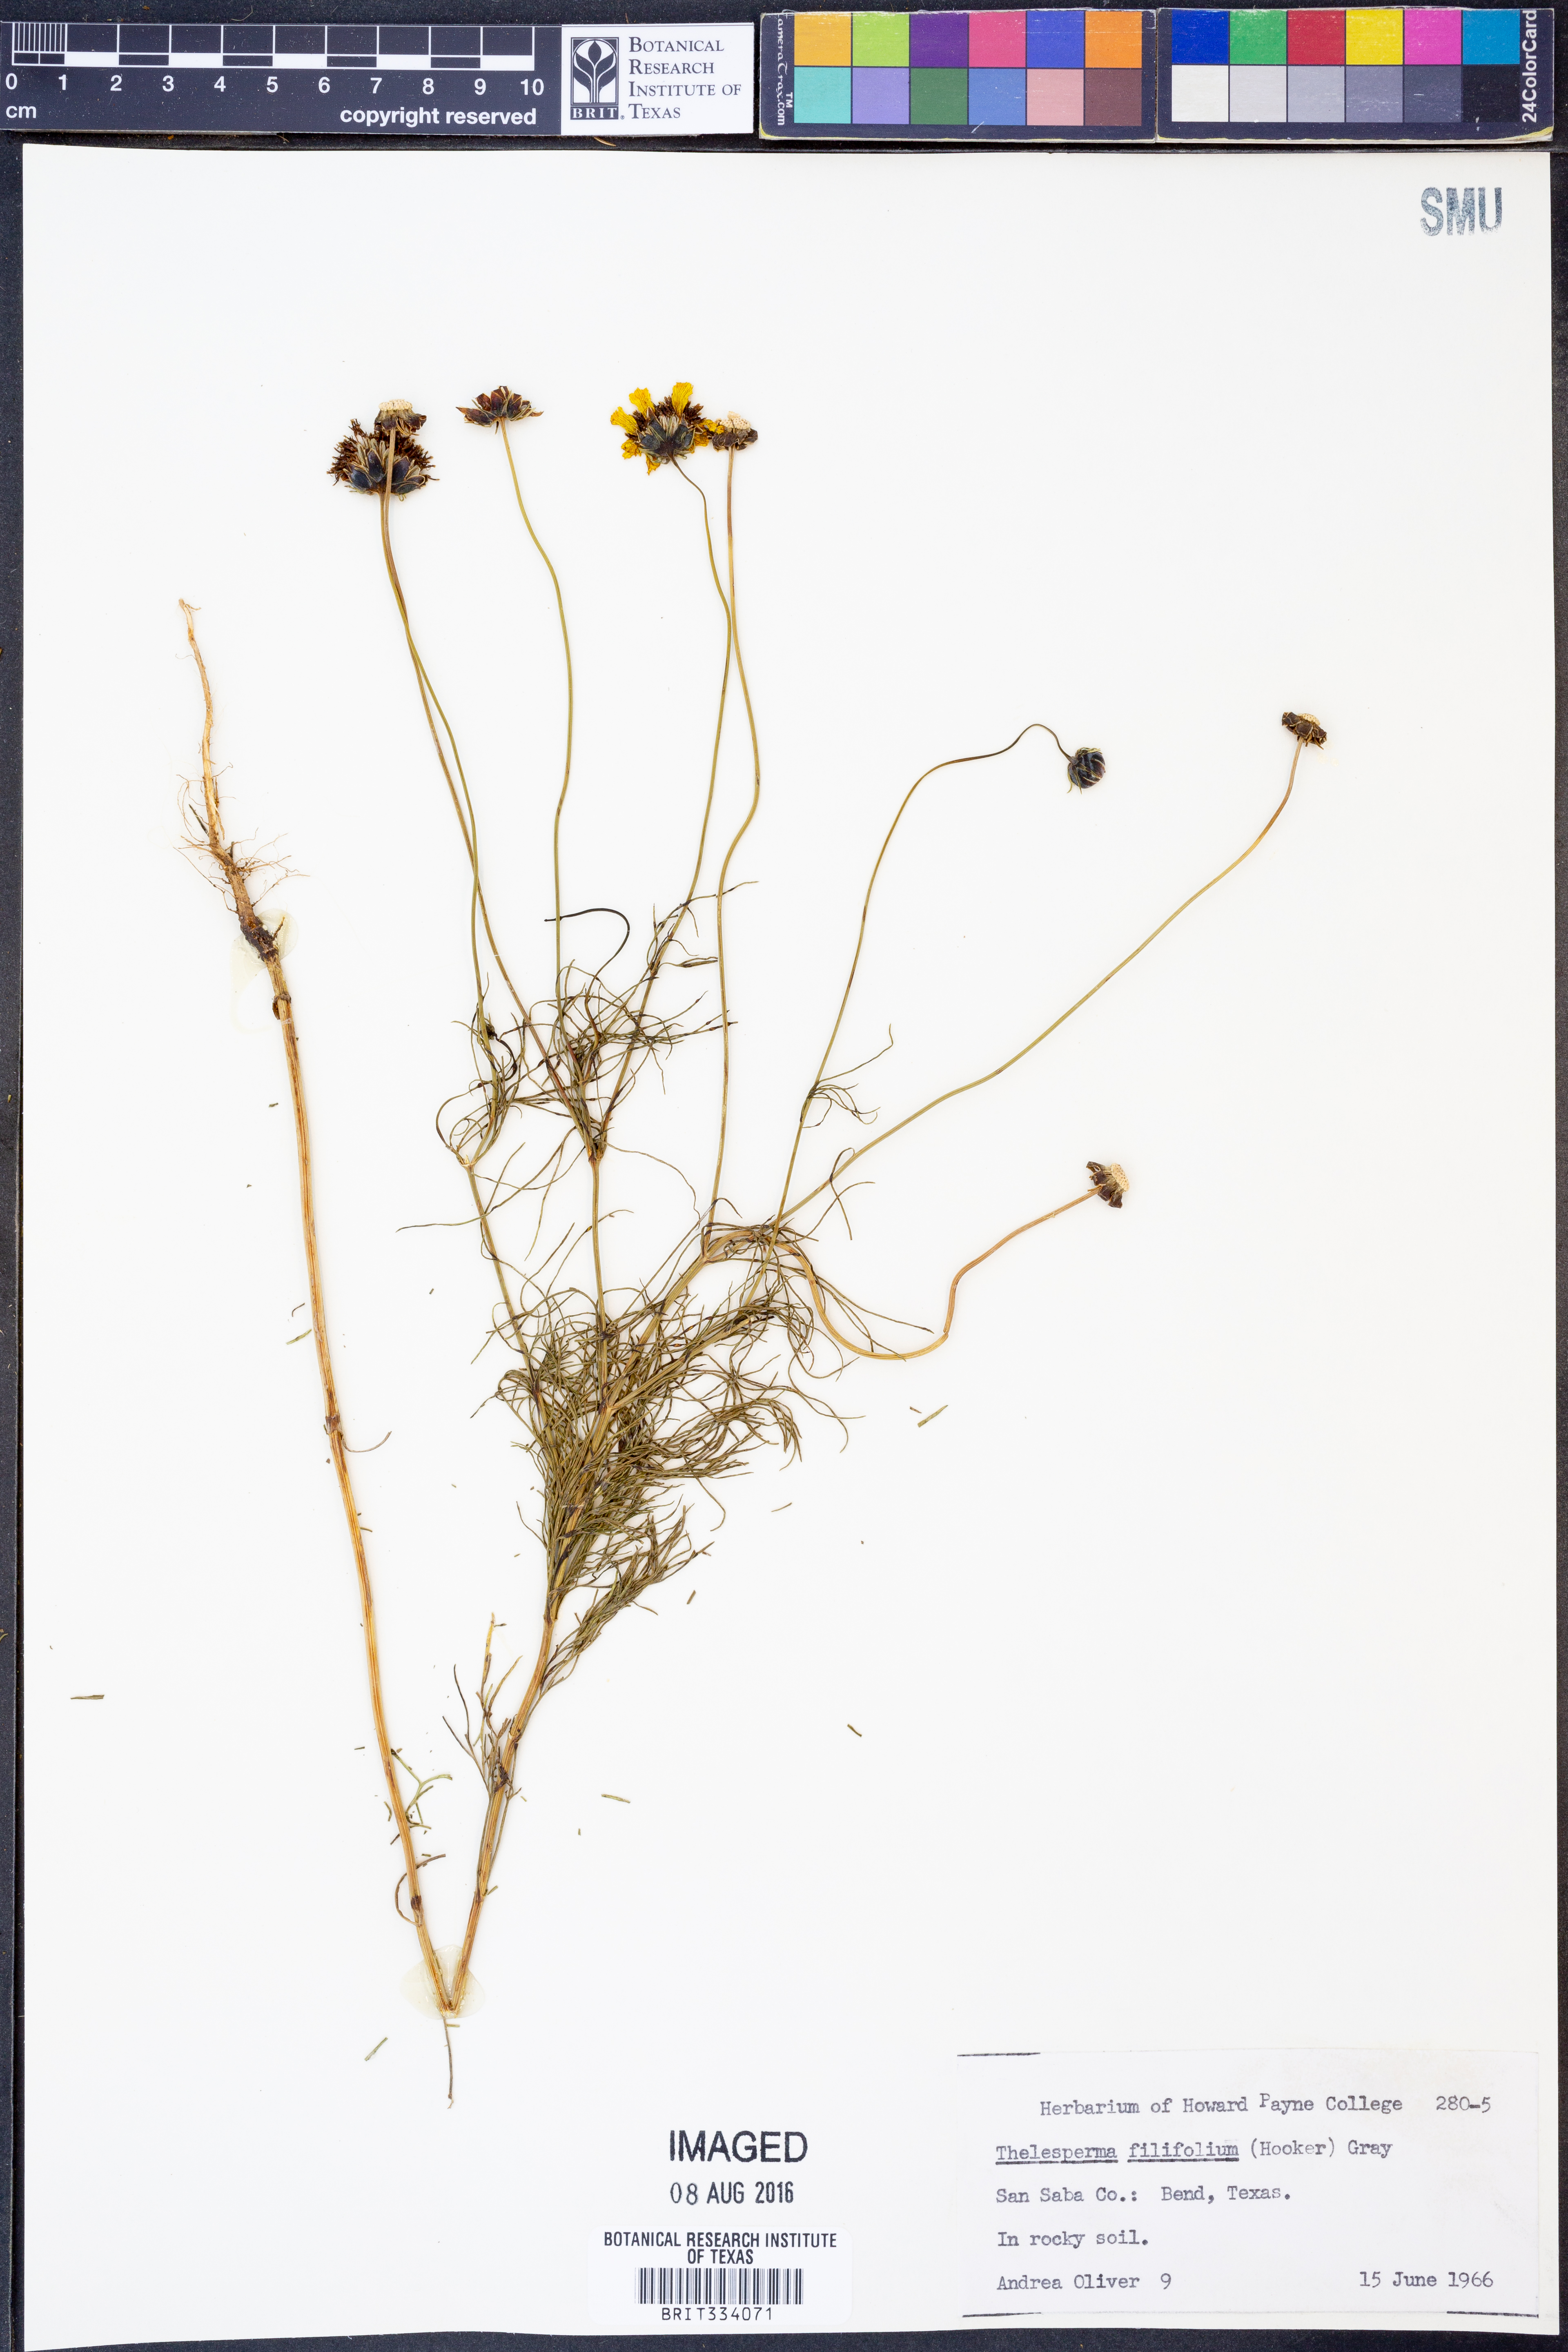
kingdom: Plantae
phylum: Tracheophyta
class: Magnoliopsida
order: Asterales
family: Asteraceae
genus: Thelesperma
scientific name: Thelesperma filifolium
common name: Stiff greenthread
